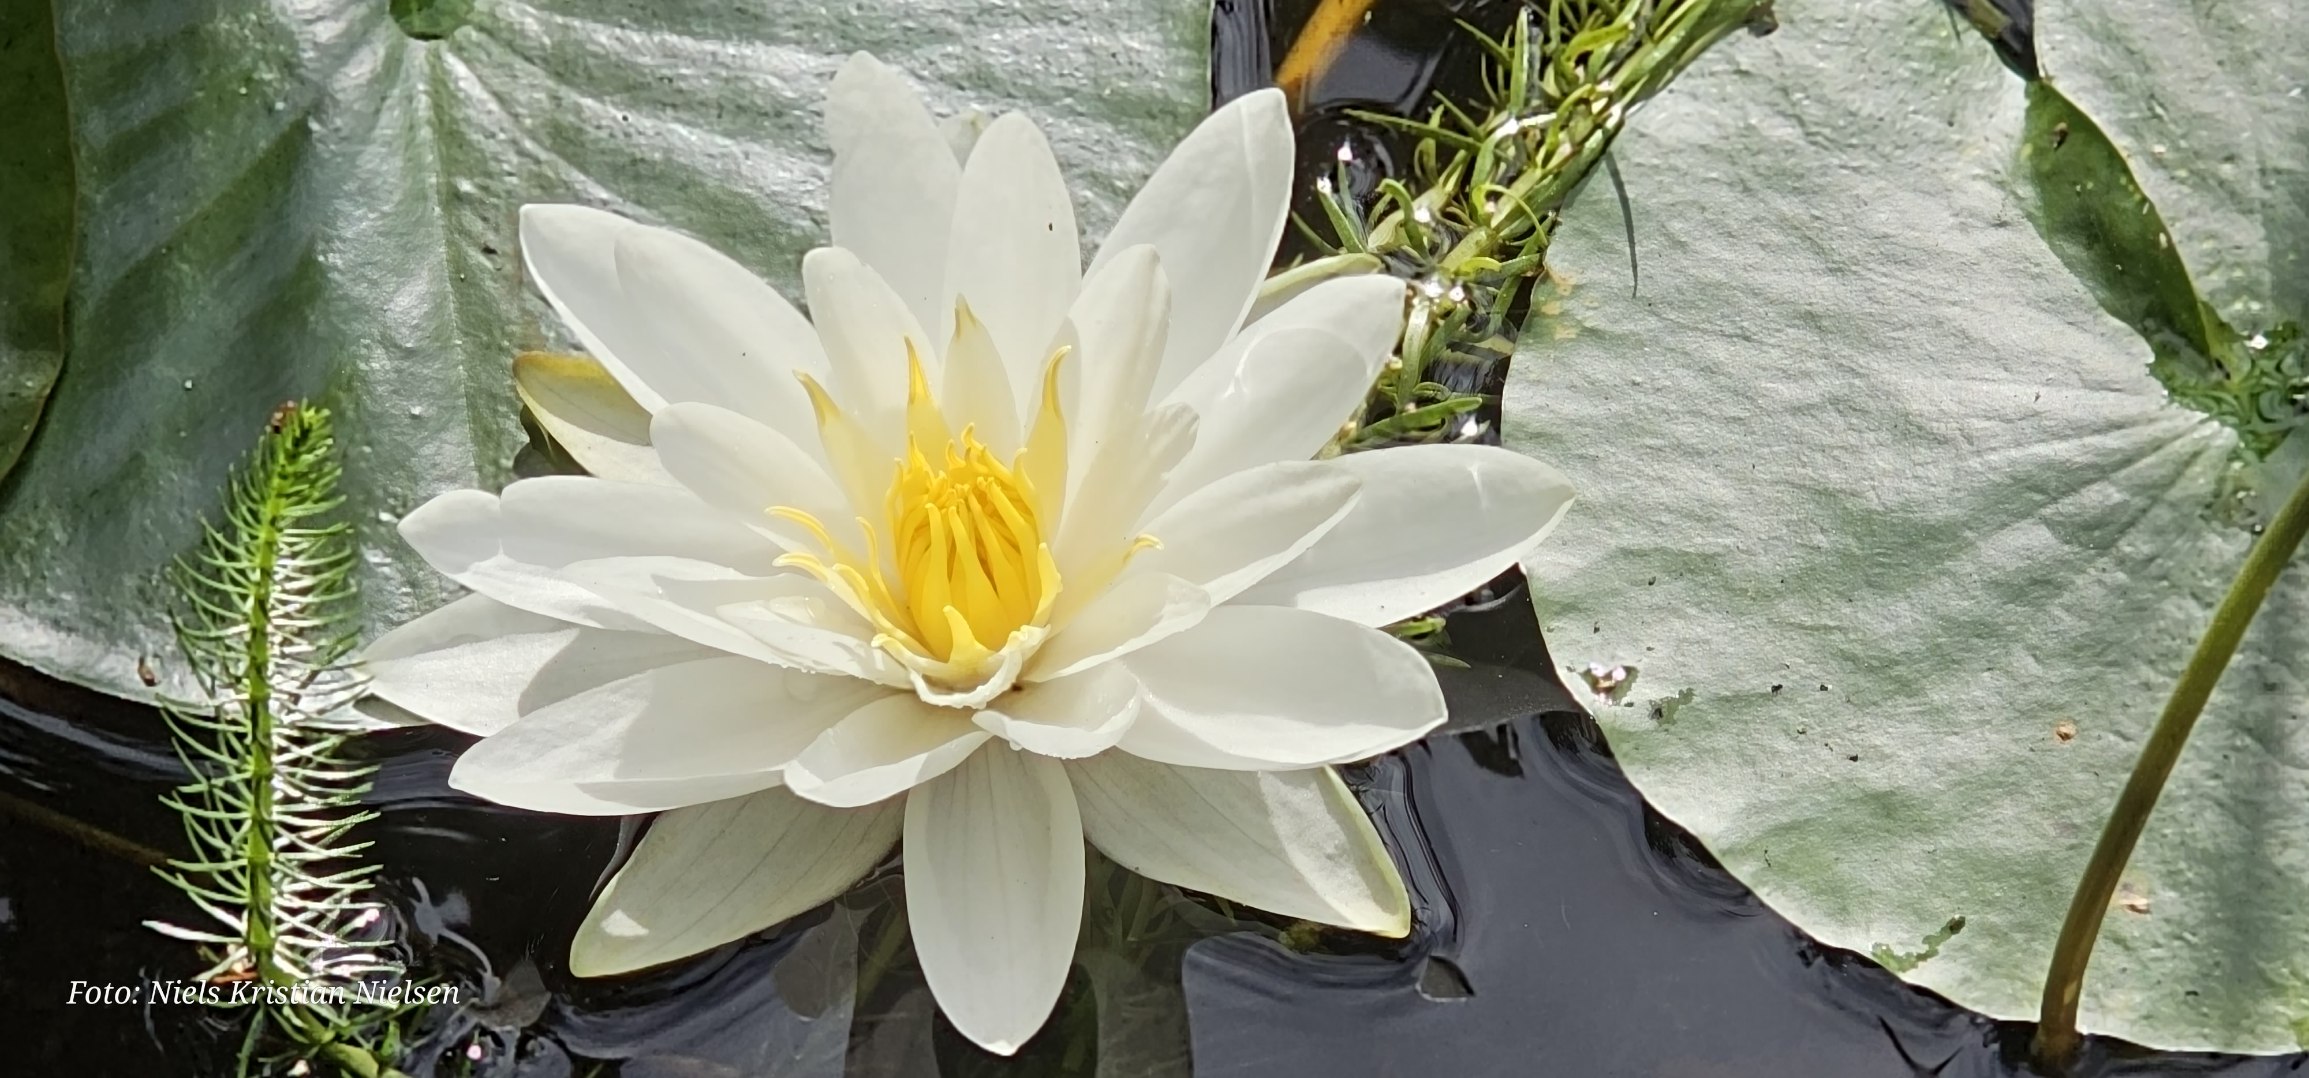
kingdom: Plantae
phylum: Tracheophyta
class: Magnoliopsida
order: Nymphaeales
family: Nymphaeaceae
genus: Nymphaea
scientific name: Nymphaea alba
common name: Hvid åkande
